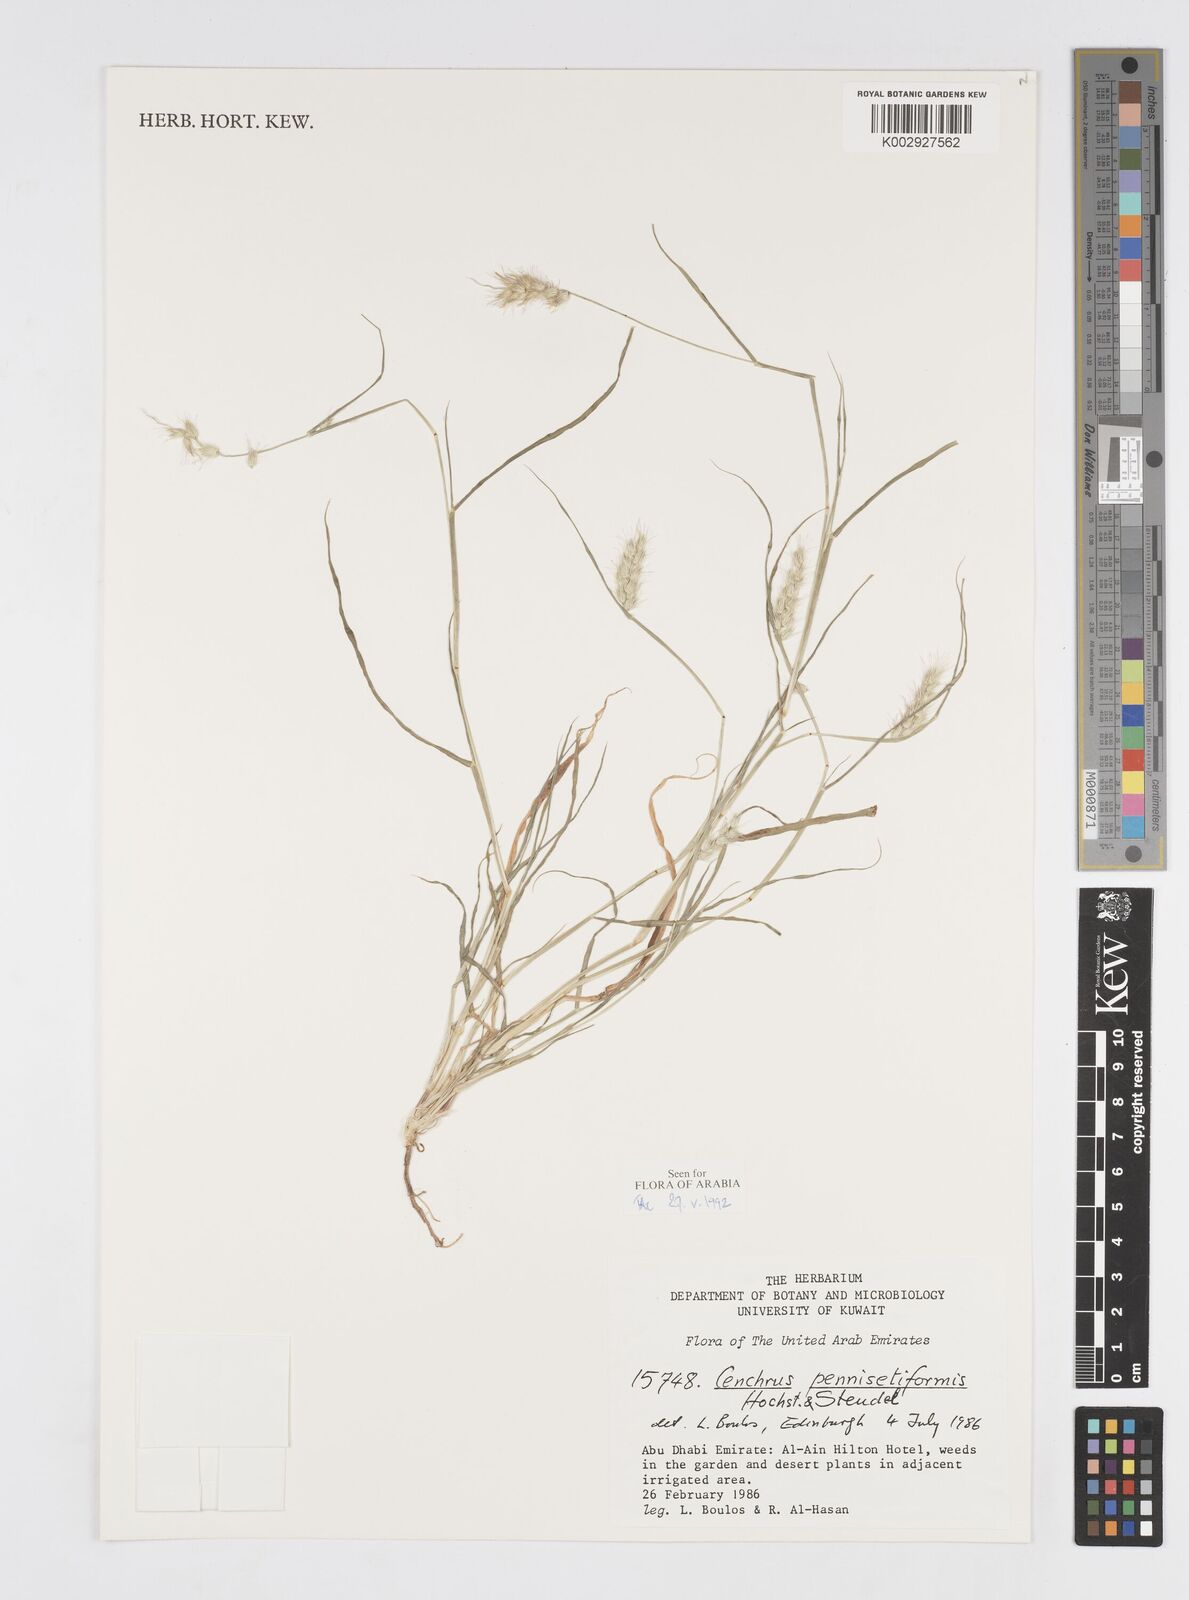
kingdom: Plantae
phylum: Tracheophyta
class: Liliopsida
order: Poales
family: Poaceae
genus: Cenchrus
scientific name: Cenchrus pennisetiformis
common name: Cloncurry
